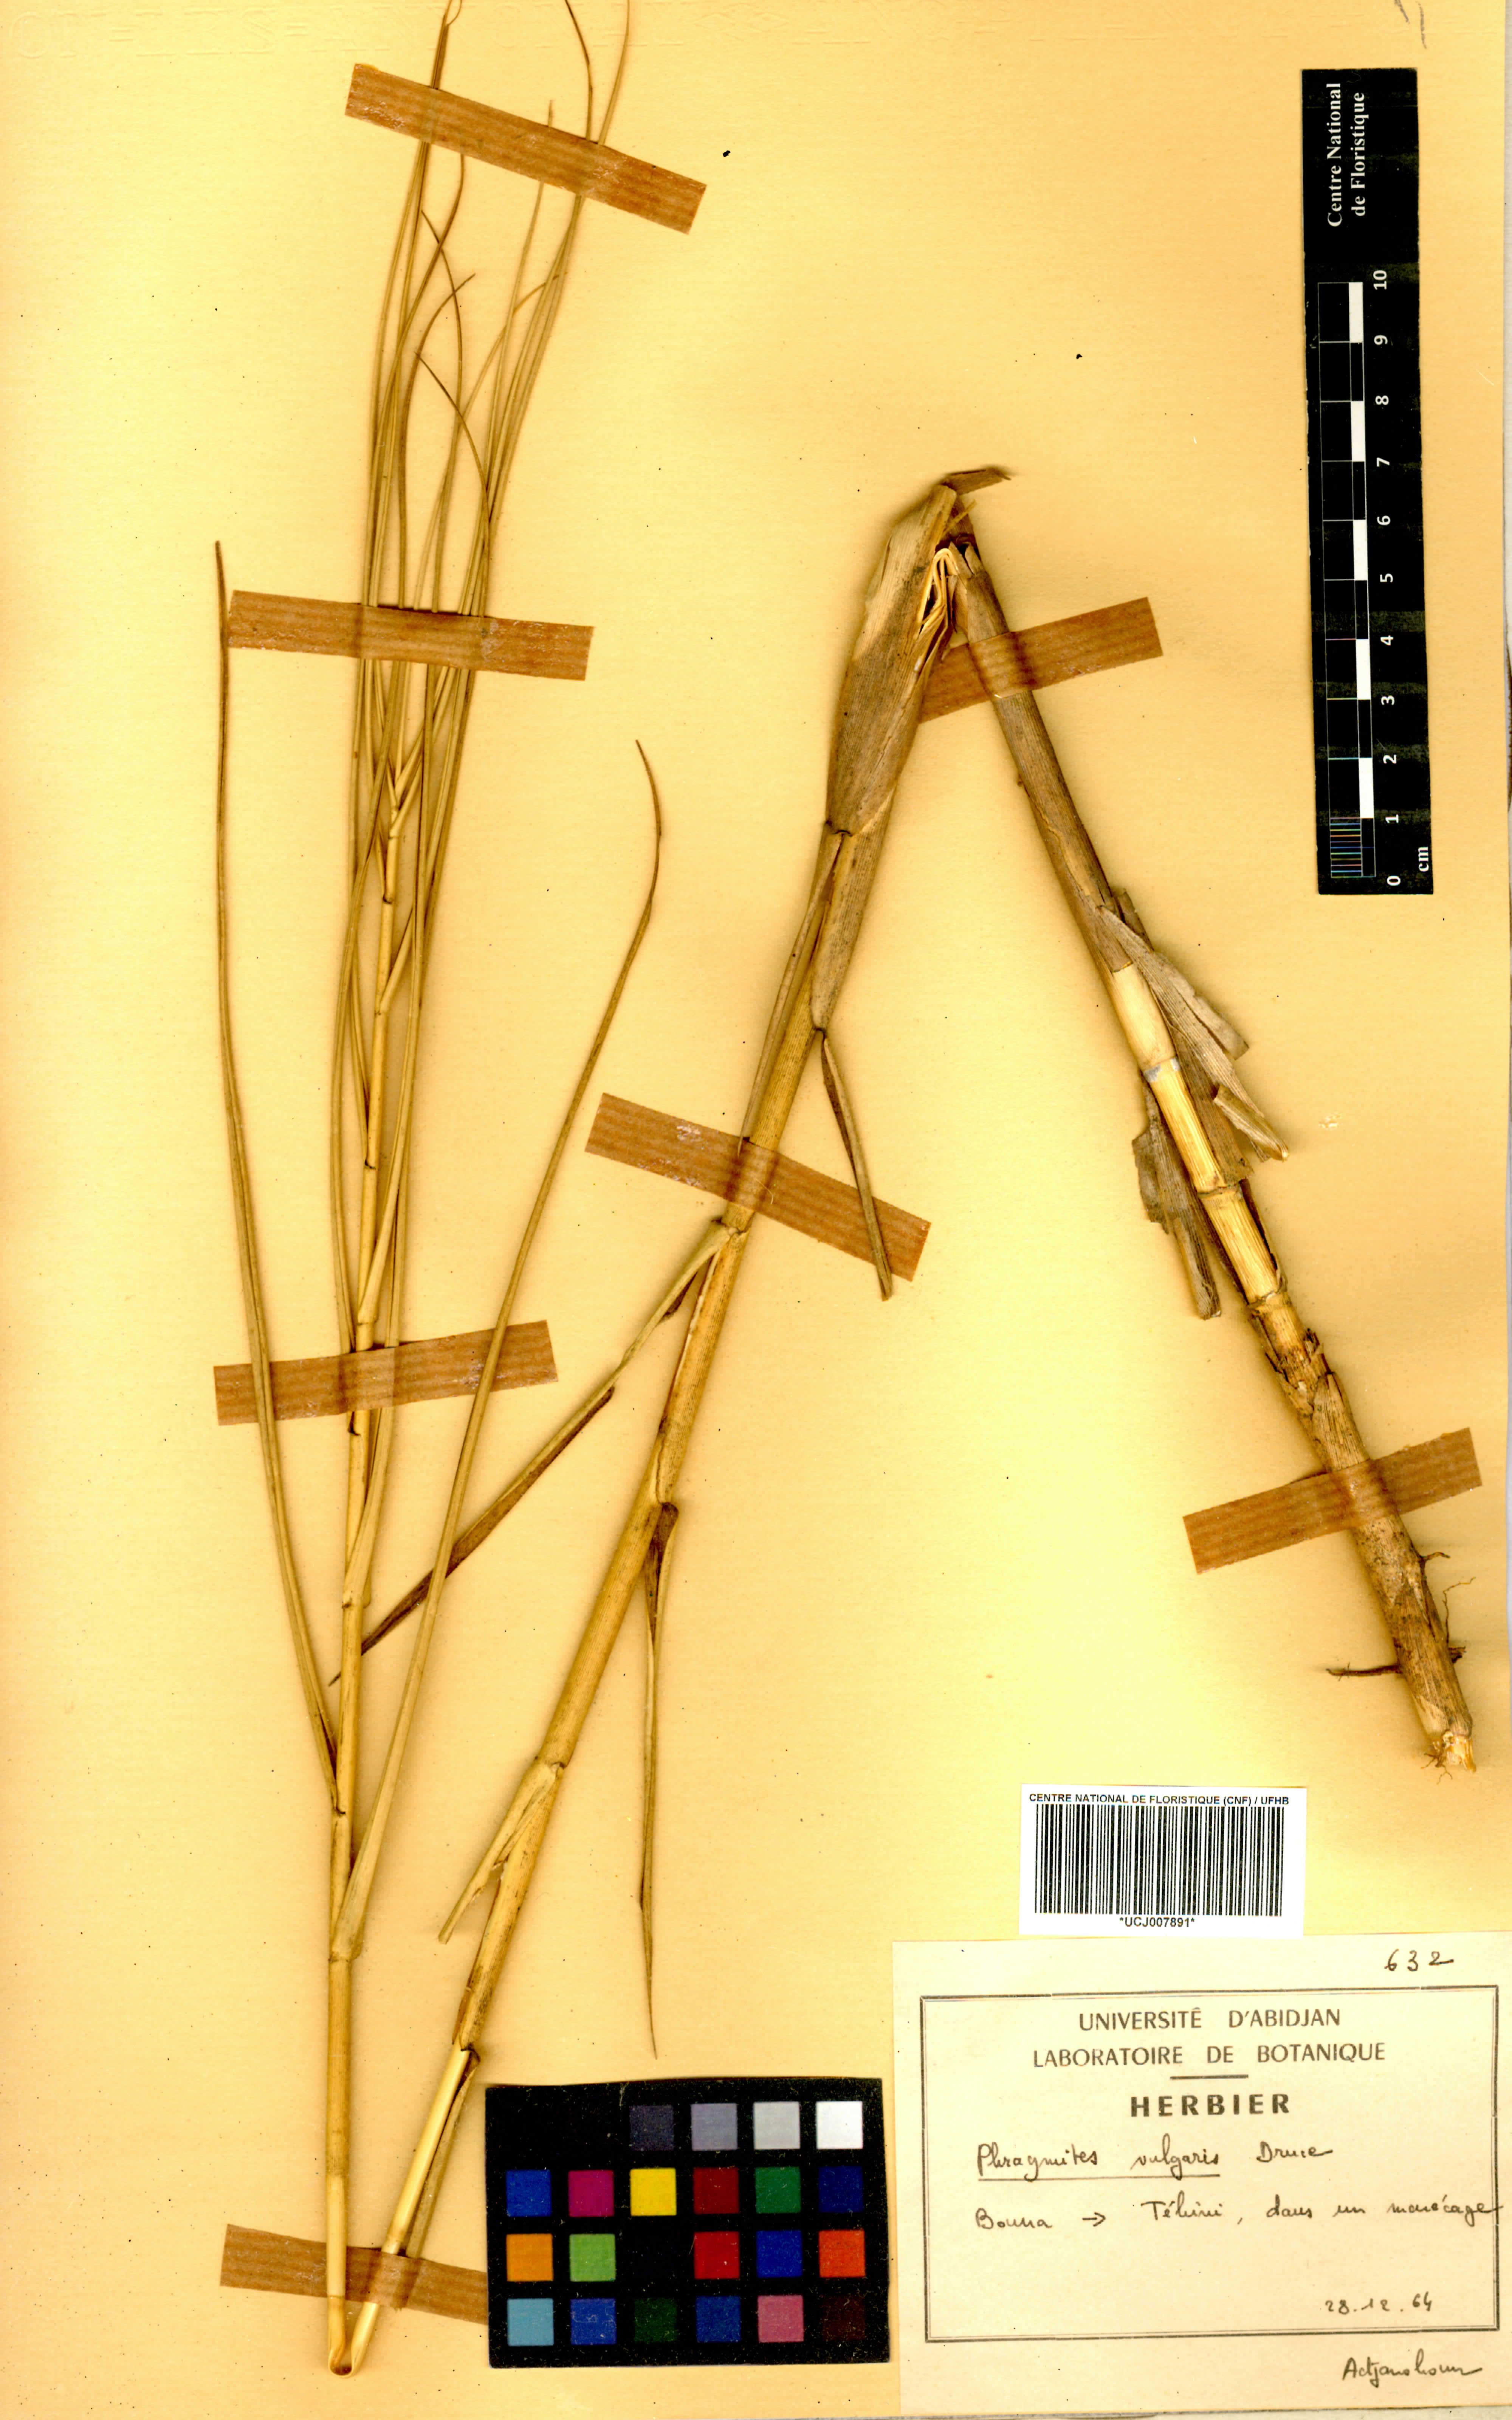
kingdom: Plantae
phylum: Tracheophyta
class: Liliopsida
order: Poales
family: Poaceae
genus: Phragmites
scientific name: Phragmites vulgaris
